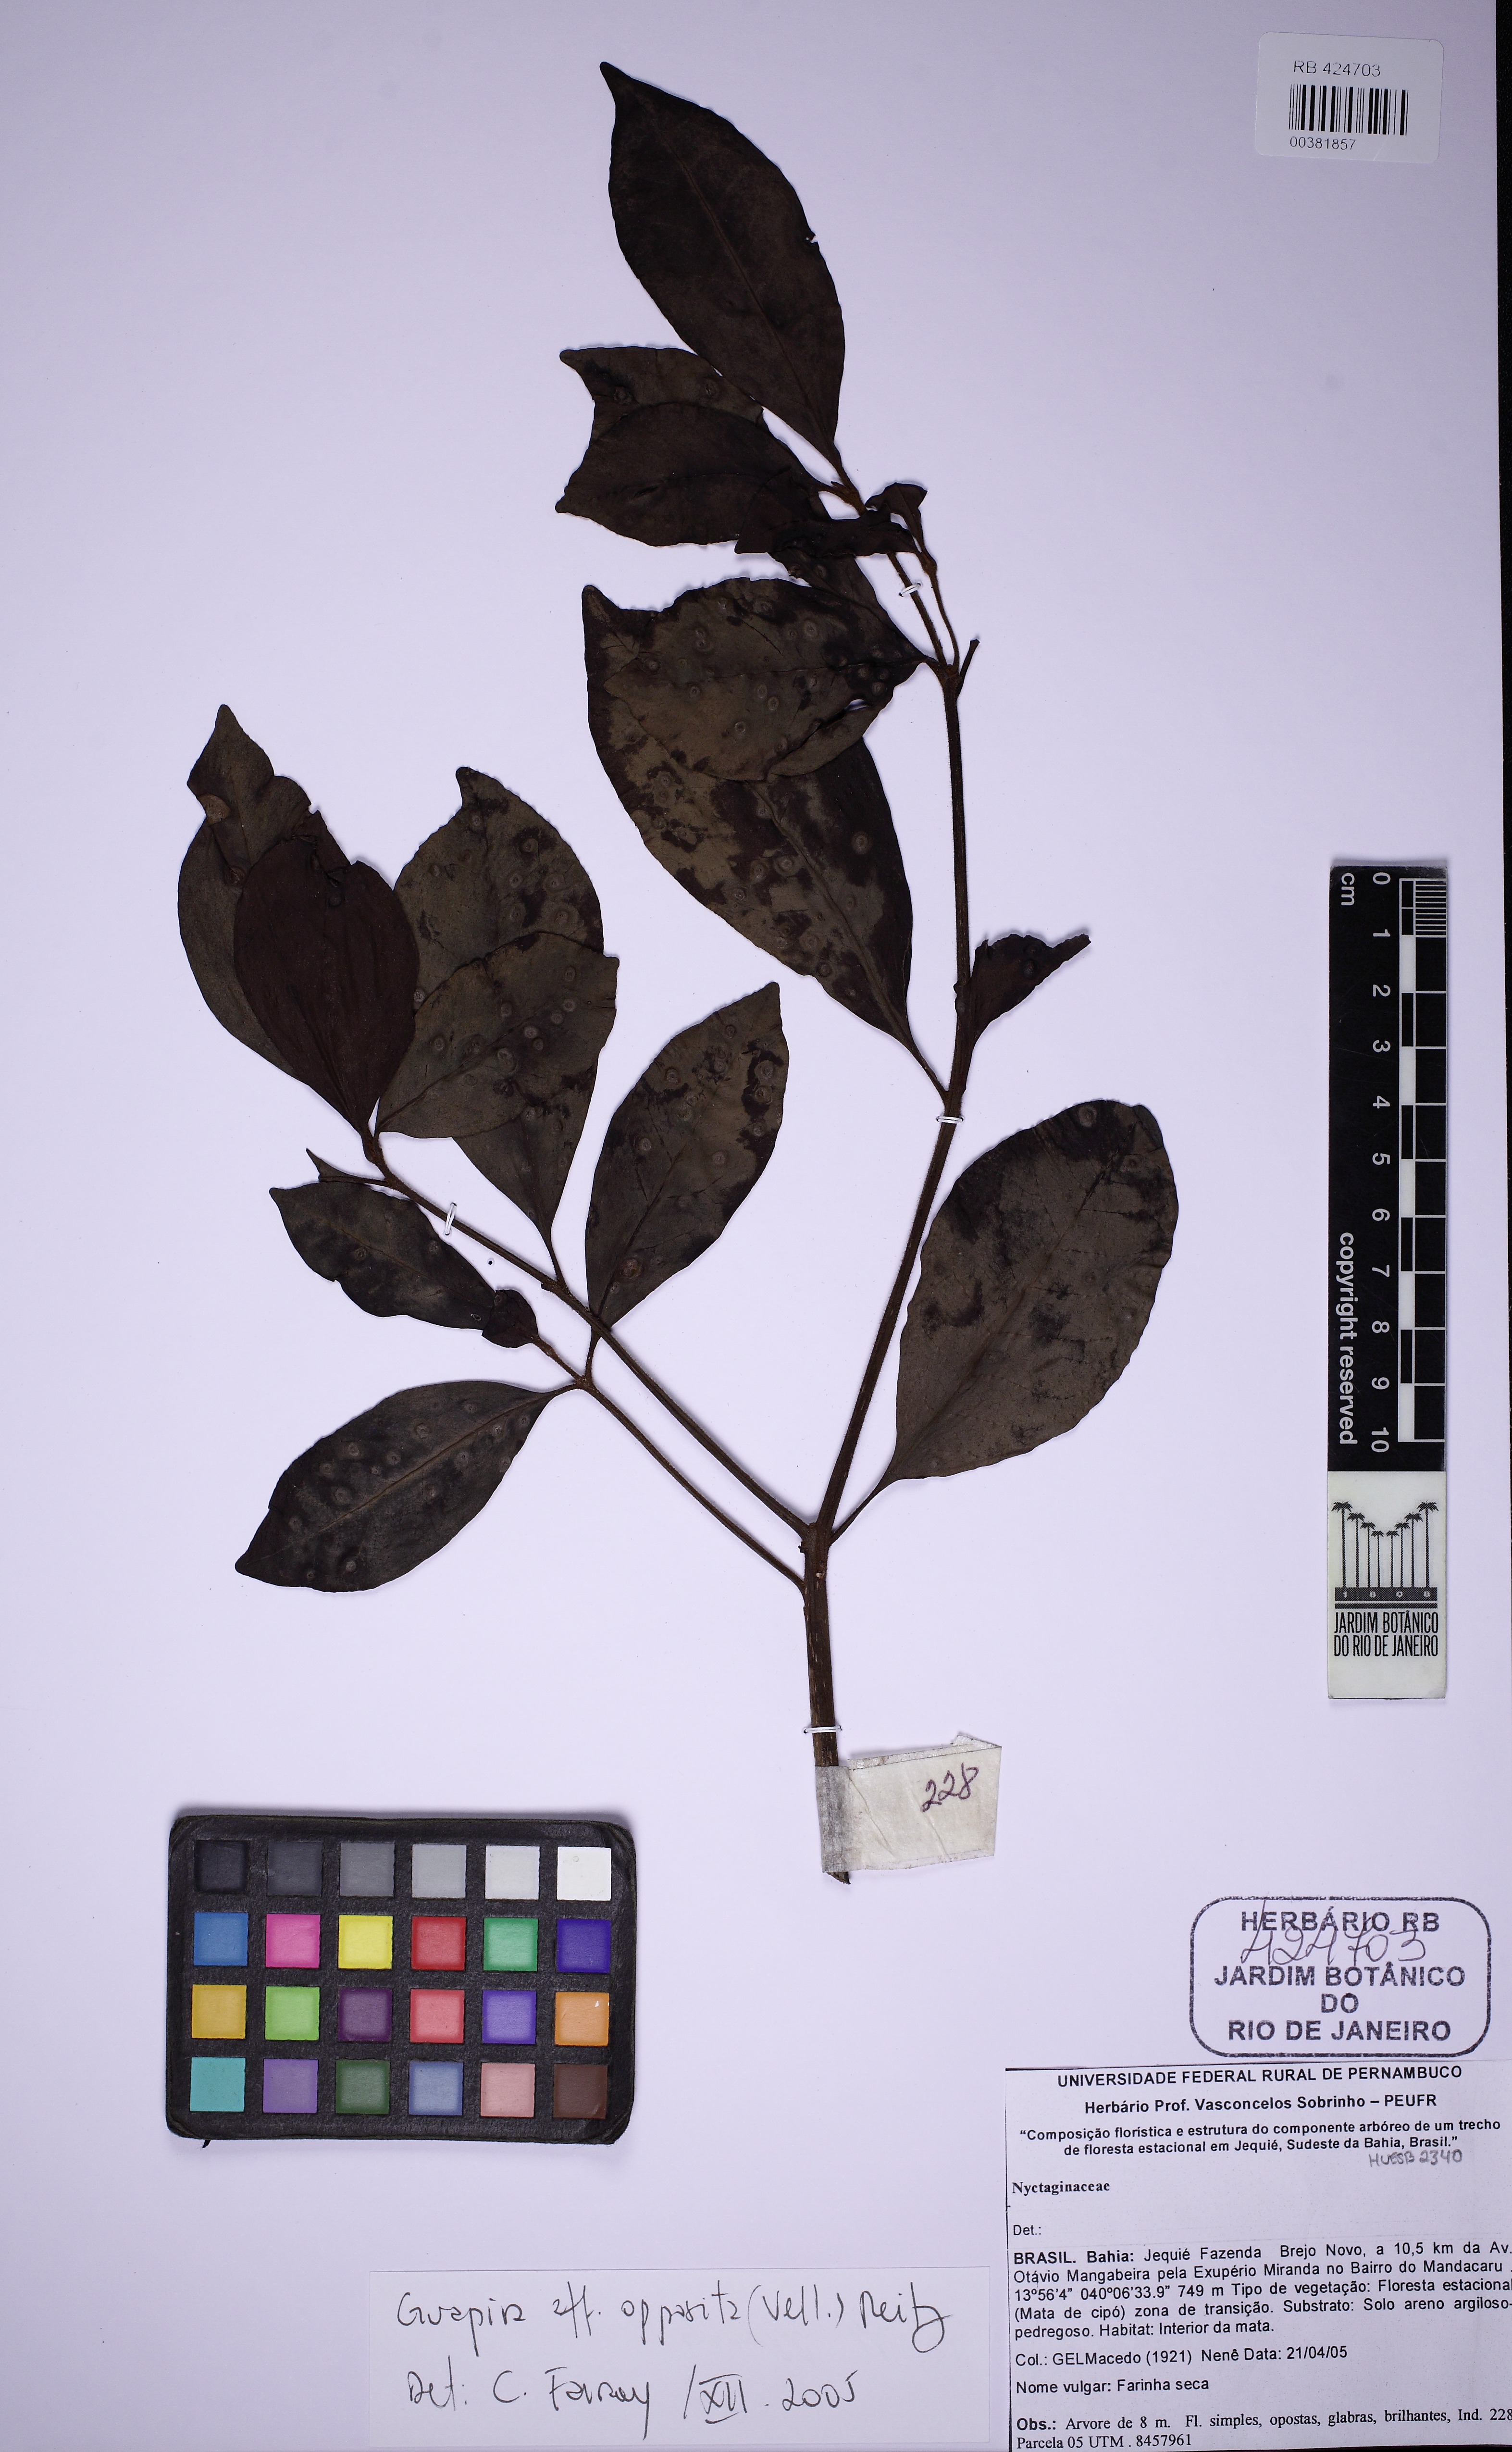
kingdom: Plantae
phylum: Tracheophyta
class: Magnoliopsida
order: Caryophyllales
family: Nyctaginaceae
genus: Guapira
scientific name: Guapira opposita
